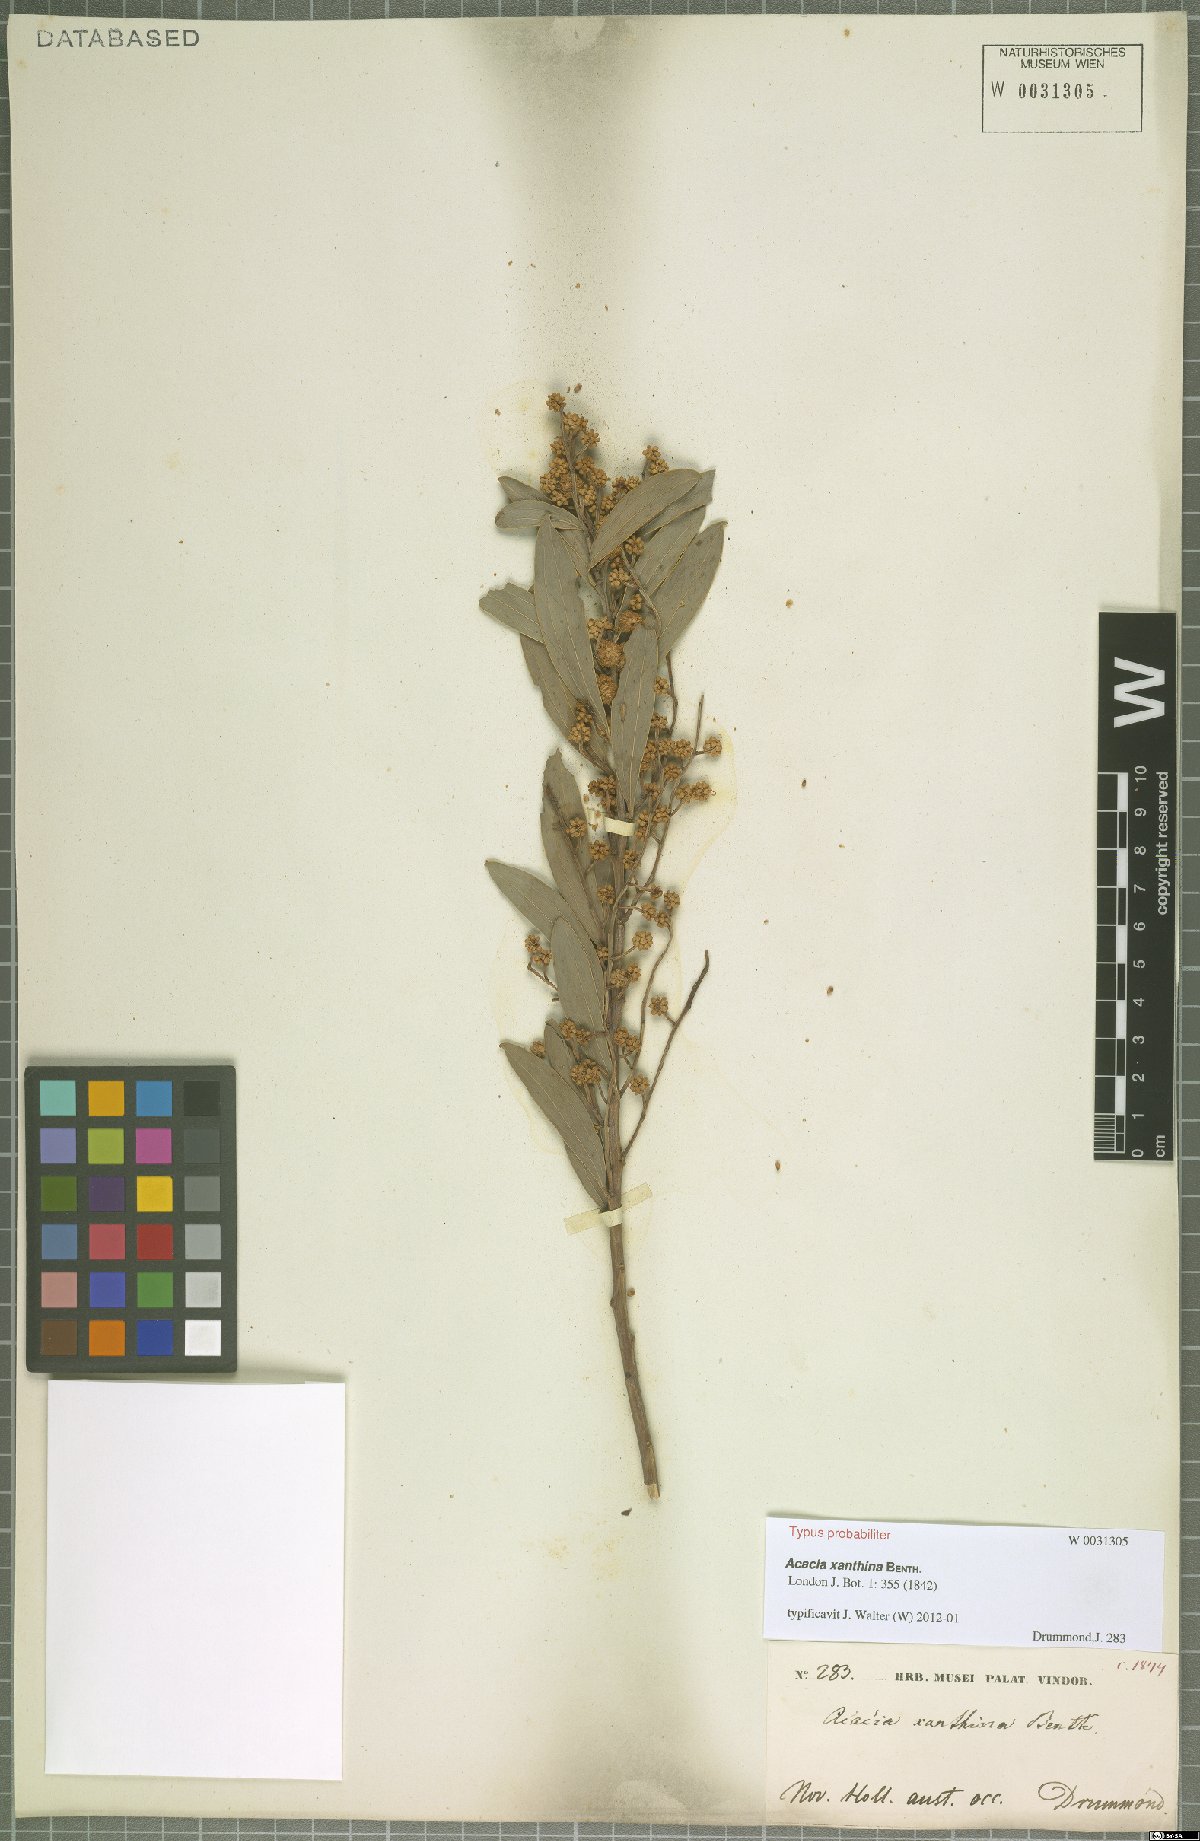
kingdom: Plantae
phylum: Tracheophyta
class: Magnoliopsida
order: Fabales
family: Fabaceae
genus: Acacia
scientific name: Acacia xanthina
